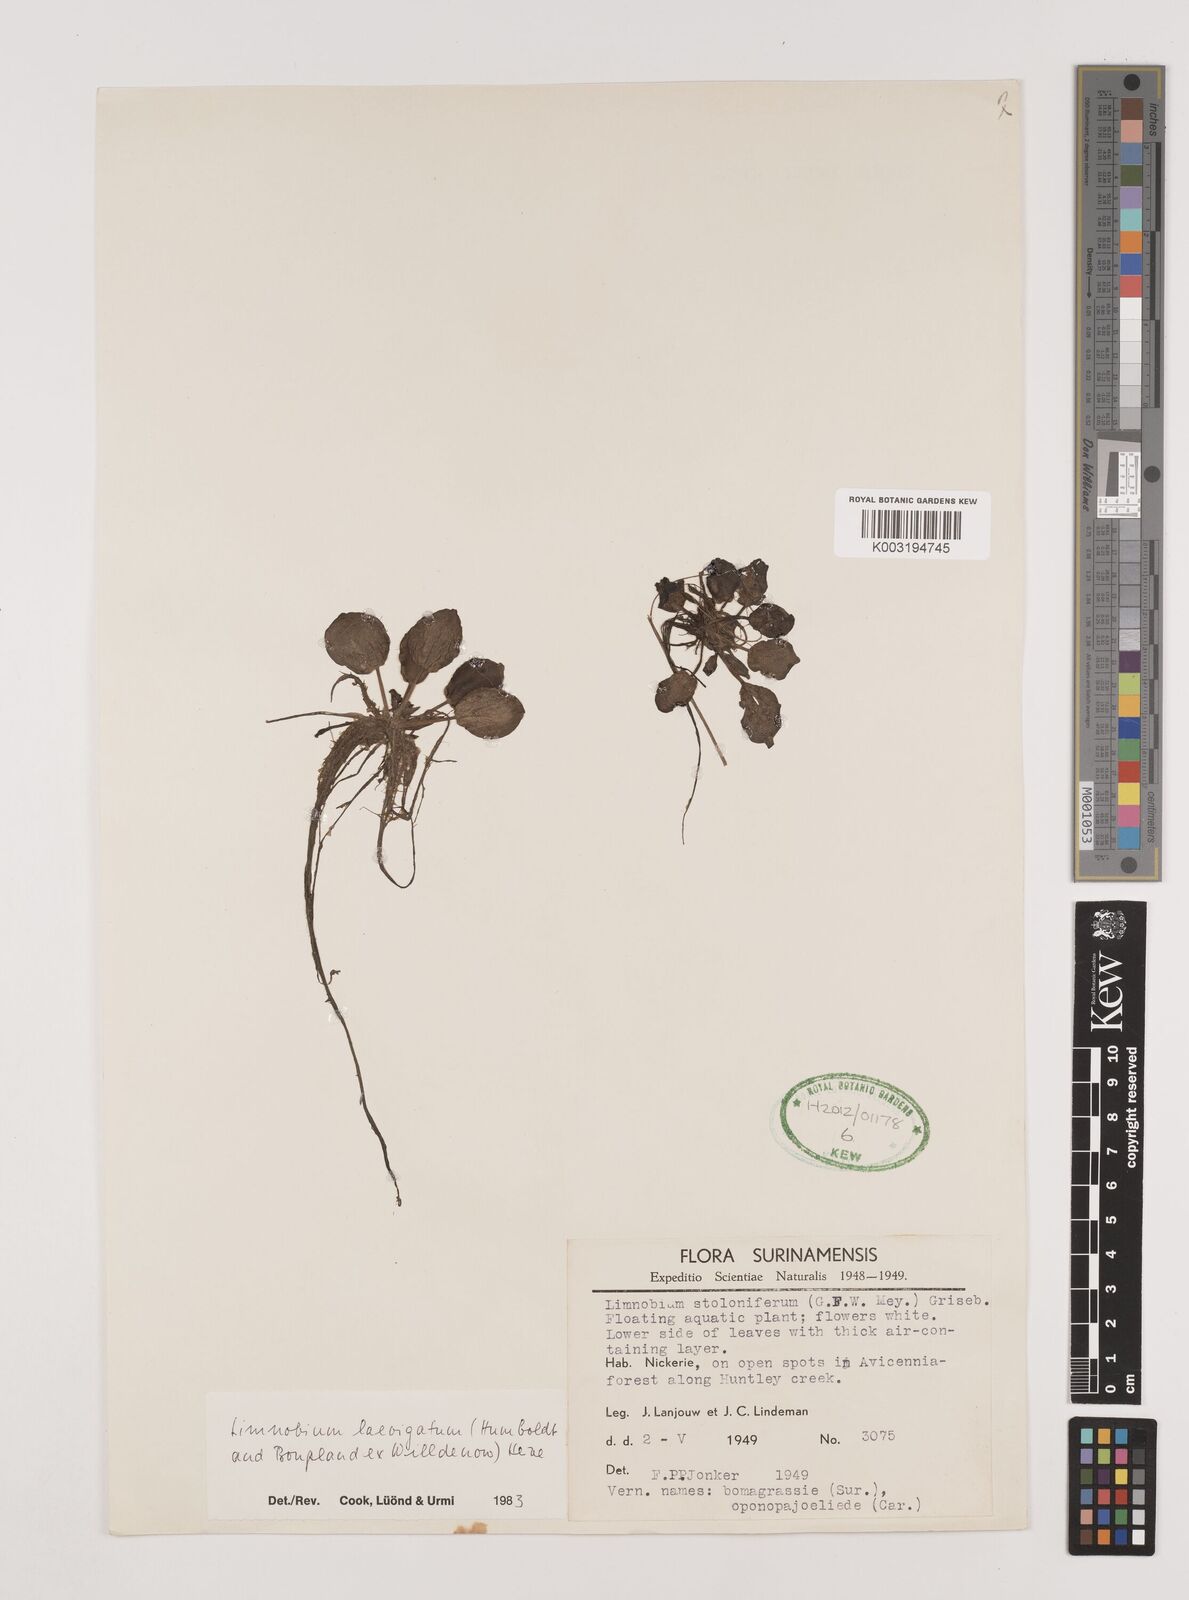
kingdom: Plantae
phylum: Tracheophyta
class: Liliopsida
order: Alismatales
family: Hydrocharitaceae
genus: Hydrocharis
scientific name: Hydrocharis laevigata
